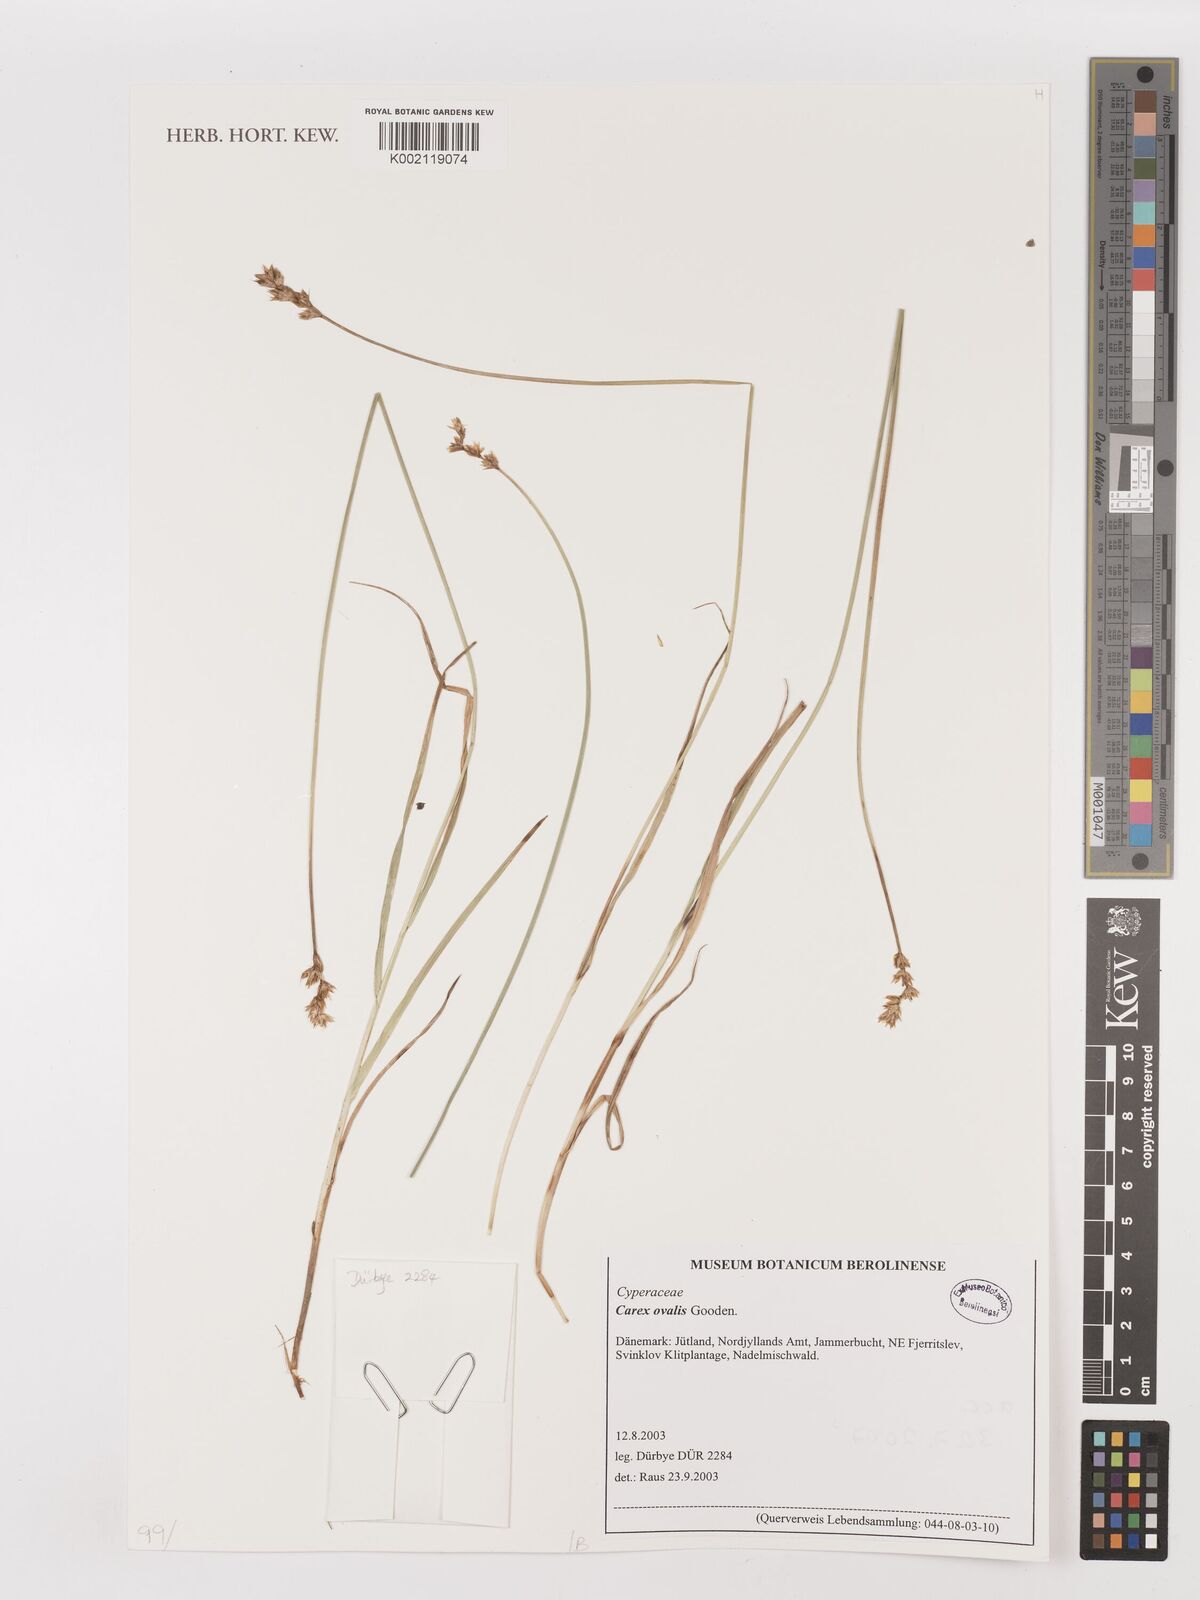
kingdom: Plantae
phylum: Tracheophyta
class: Liliopsida
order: Poales
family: Cyperaceae
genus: Carex
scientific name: Carex leporina
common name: Oval sedge
